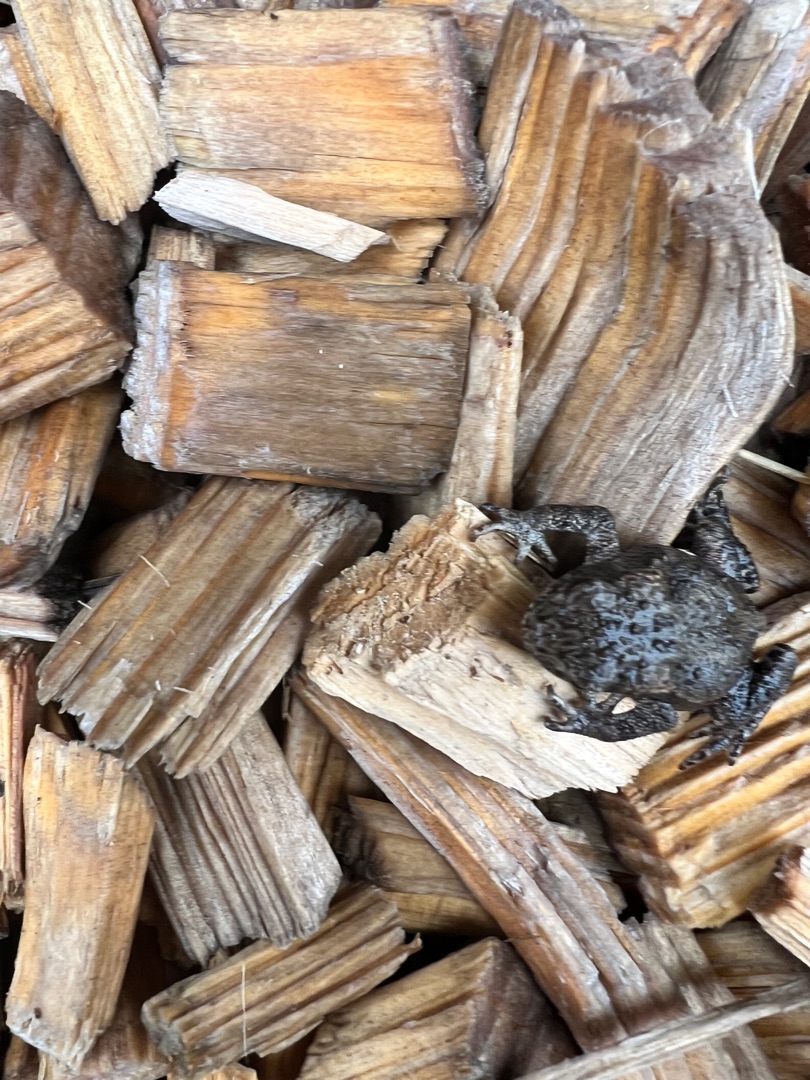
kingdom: Animalia
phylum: Chordata
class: Amphibia
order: Anura
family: Bufonidae
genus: Bufo
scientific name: Bufo bufo
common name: Skrubtudse
